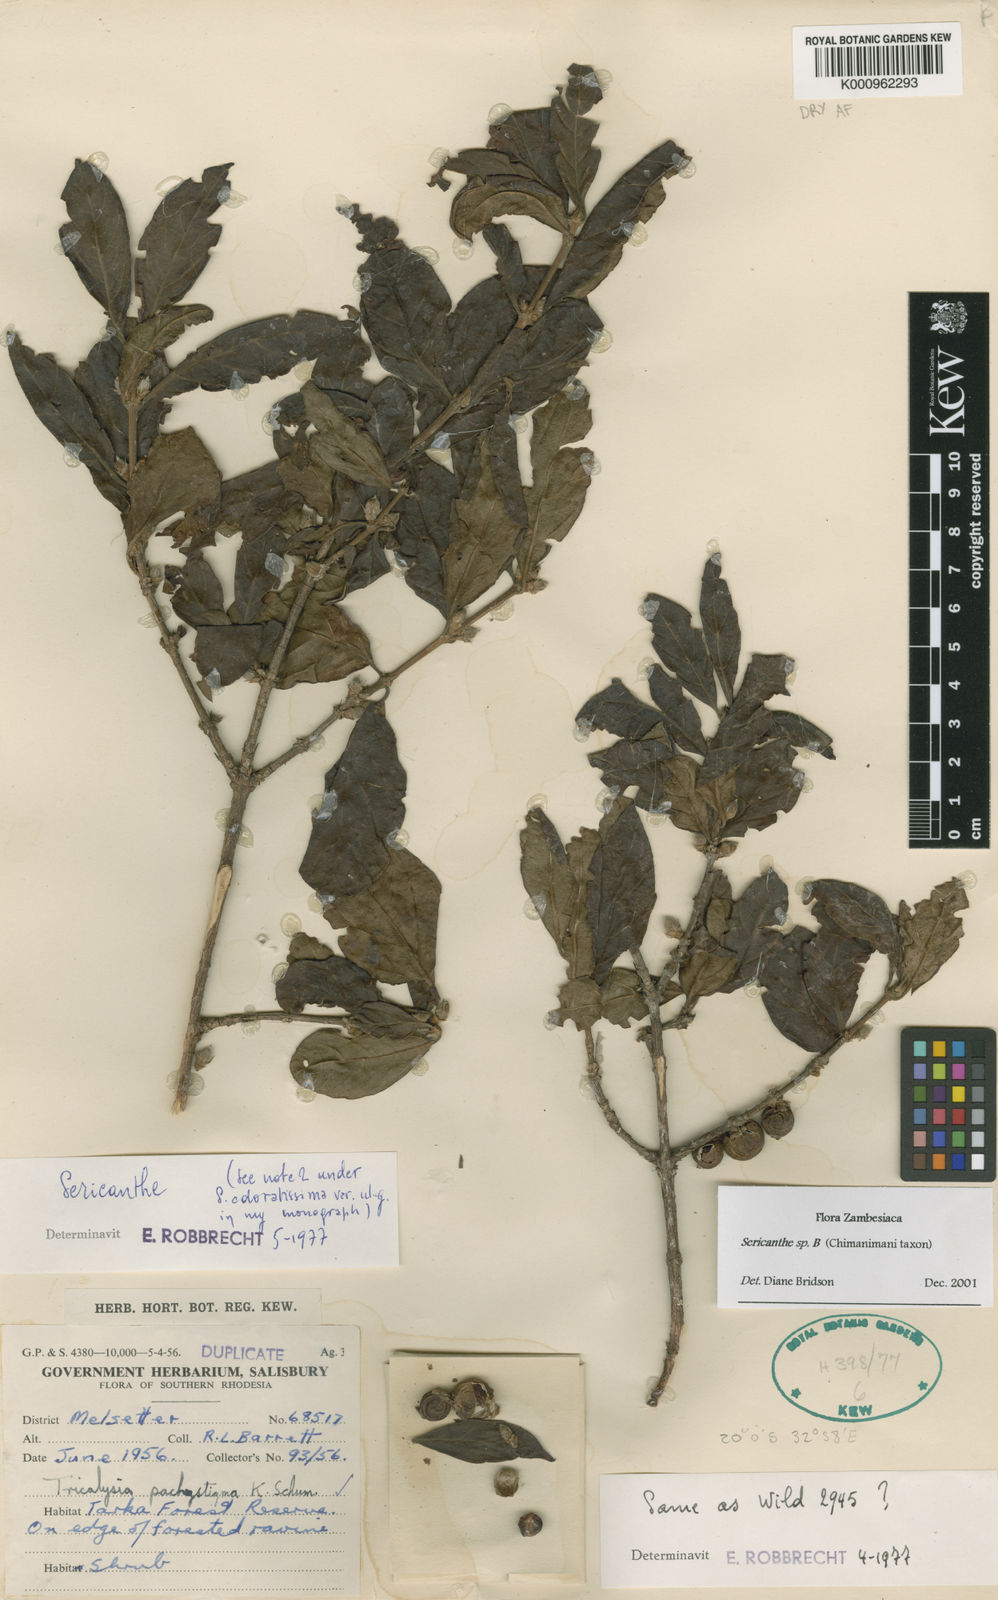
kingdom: Plantae
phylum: Tracheophyta
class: Magnoliopsida
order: Gentianales
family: Rubiaceae
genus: Sericanthe
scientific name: Sericanthe andongensis
